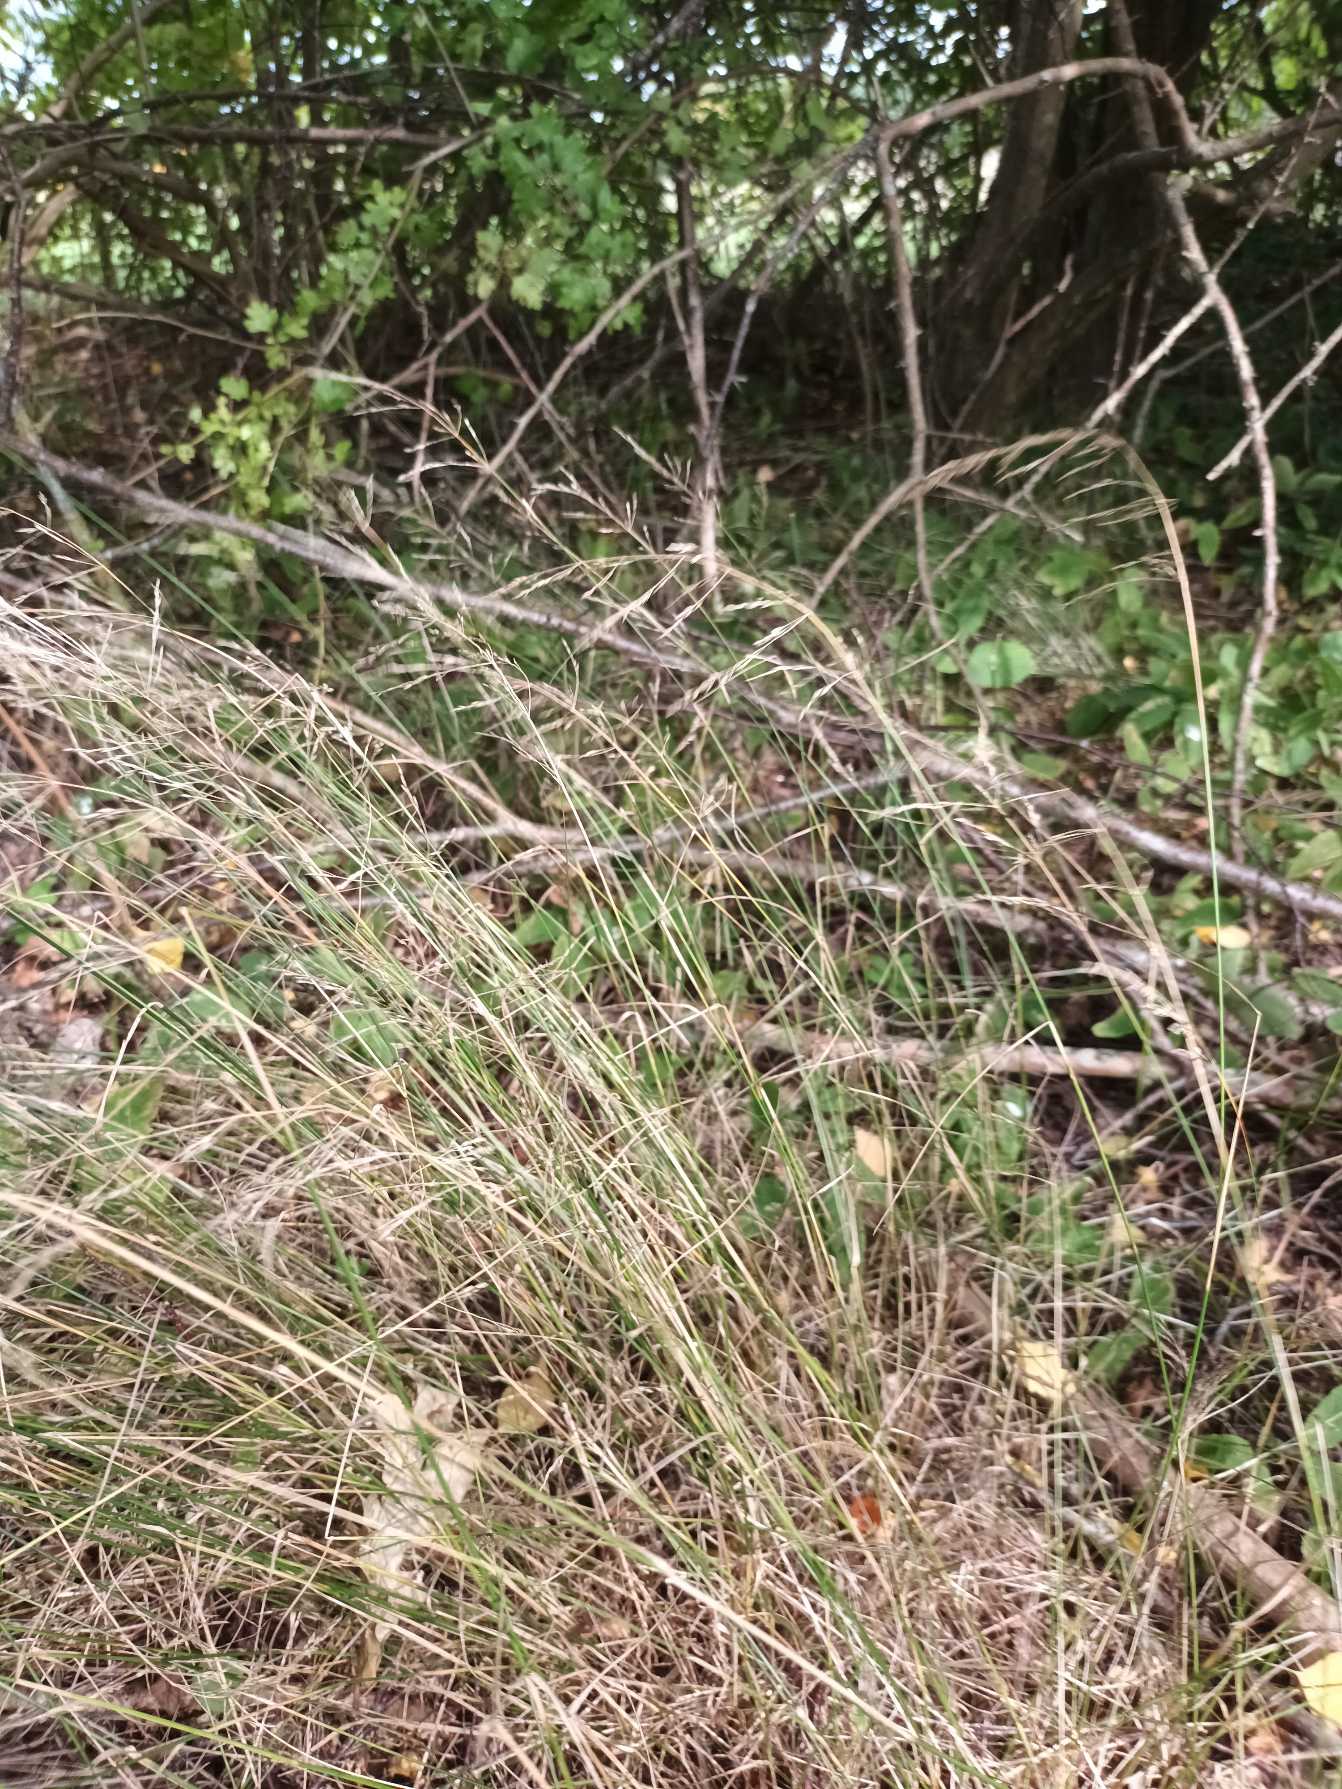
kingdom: Plantae
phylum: Tracheophyta
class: Liliopsida
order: Poales
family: Poaceae
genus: Poa
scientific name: Poa nemoralis
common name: Lund-rapgræs
